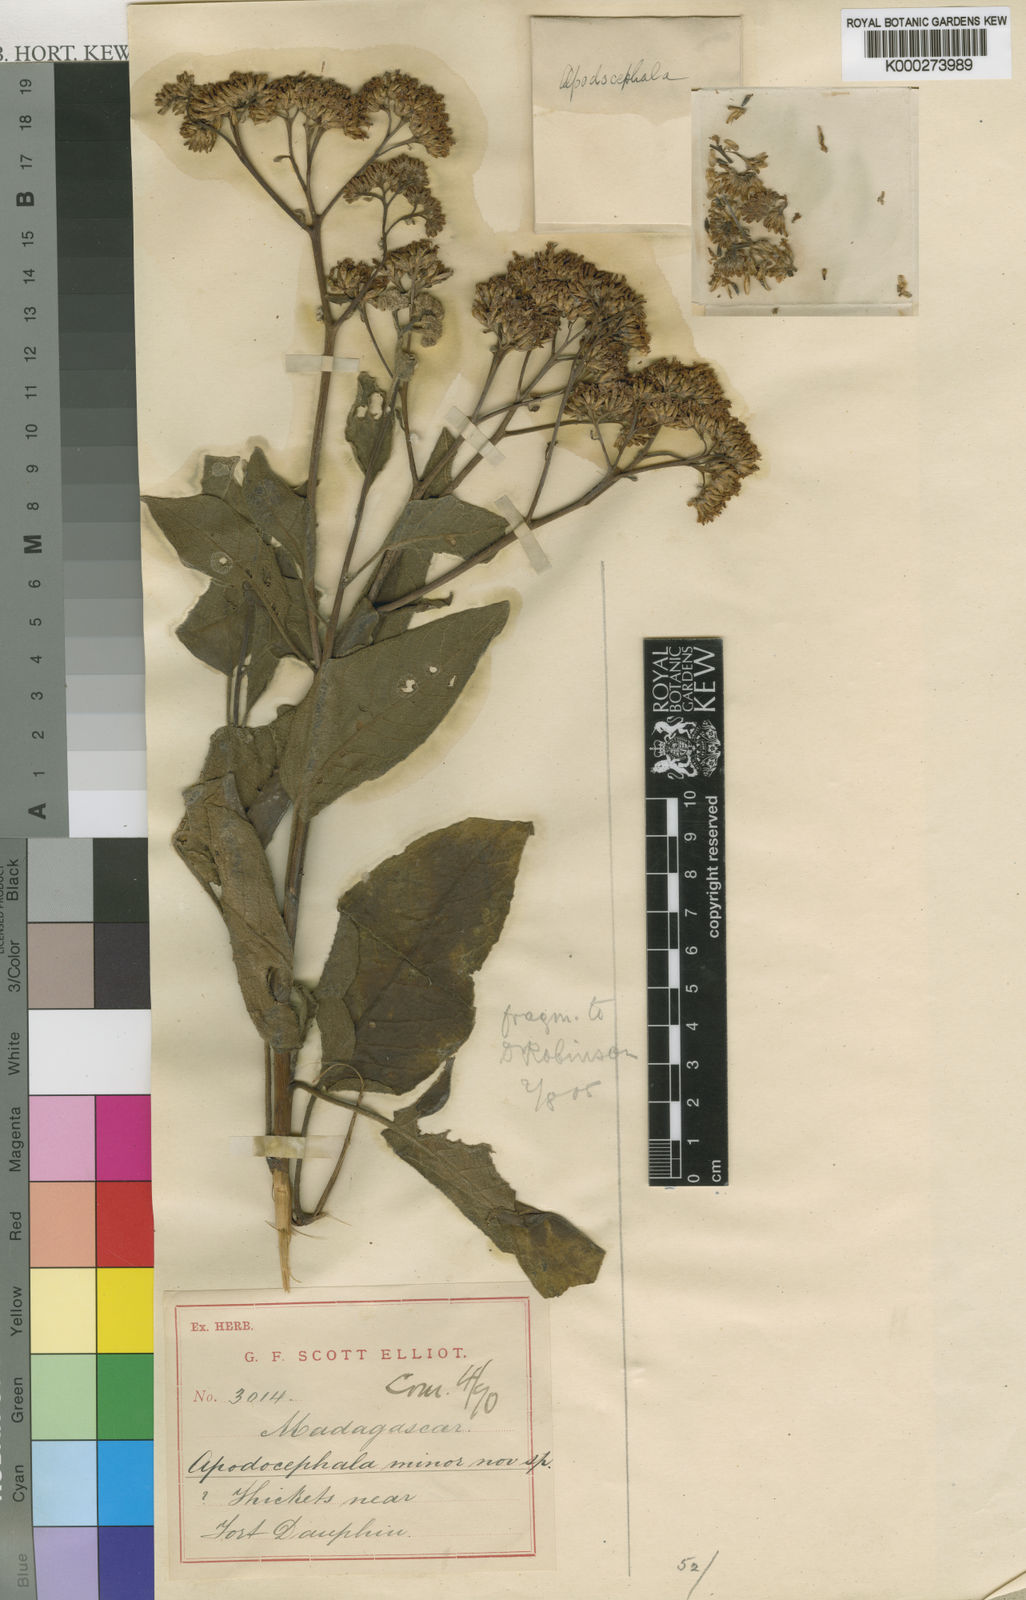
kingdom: Plantae
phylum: Tracheophyta
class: Magnoliopsida
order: Asterales
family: Asteraceae
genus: Apodocephala
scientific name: Apodocephala minor
